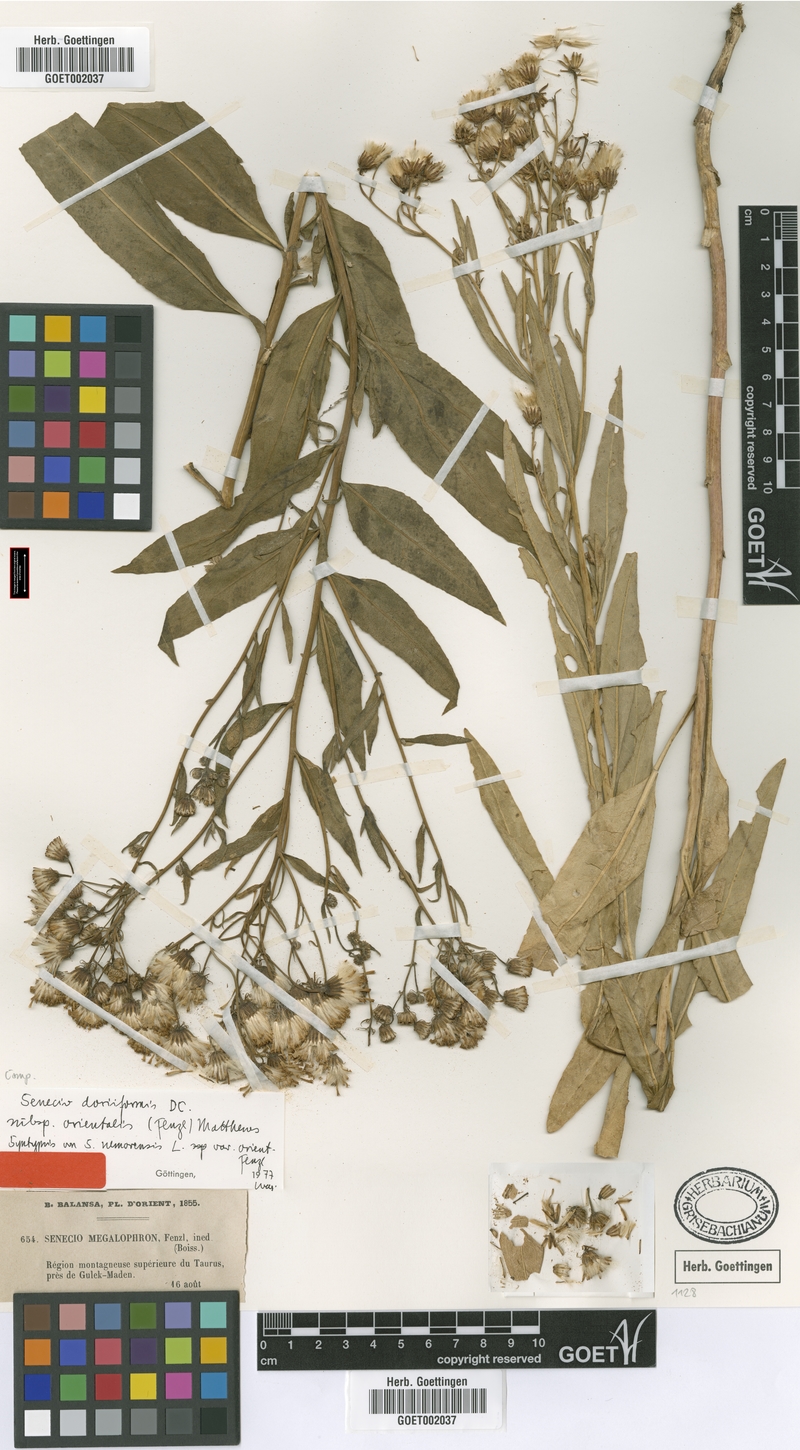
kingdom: Plantae
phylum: Tracheophyta
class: Magnoliopsida
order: Asterales
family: Asteraceae
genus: Senecio
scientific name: Senecio doriiformis
